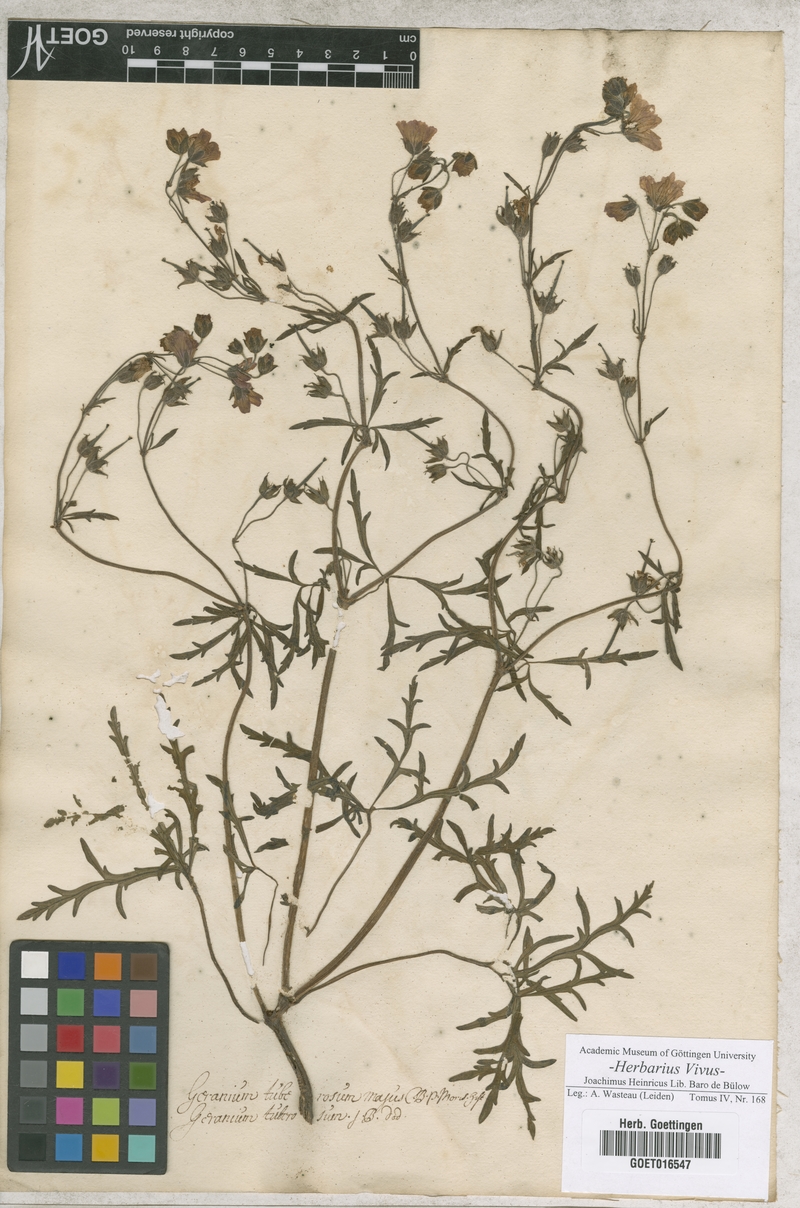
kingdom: Plantae
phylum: Tracheophyta
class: Magnoliopsida
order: Geraniales
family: Geraniaceae
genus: Geranium
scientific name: Geranium tuberosum
